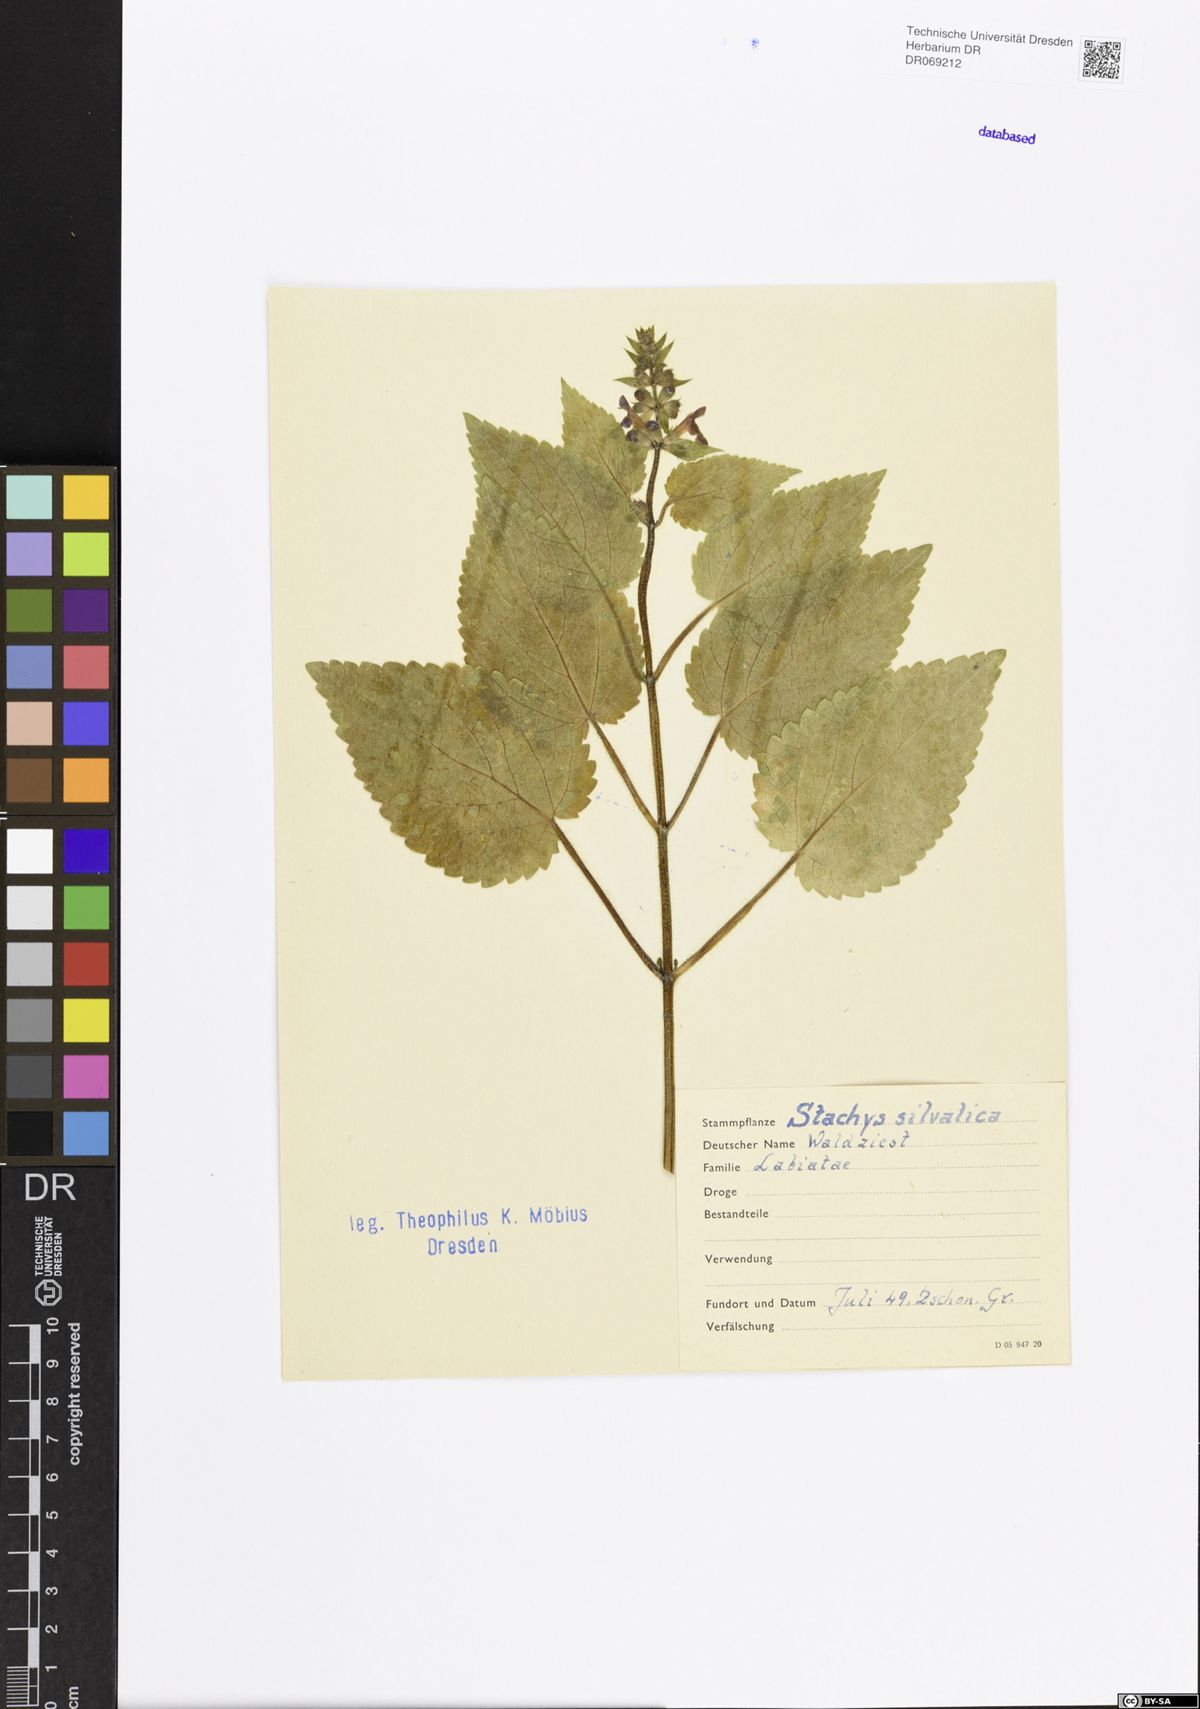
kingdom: Plantae
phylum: Tracheophyta
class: Magnoliopsida
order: Lamiales
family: Lamiaceae
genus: Stachys
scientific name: Stachys sylvatica
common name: Hedge woundwort
